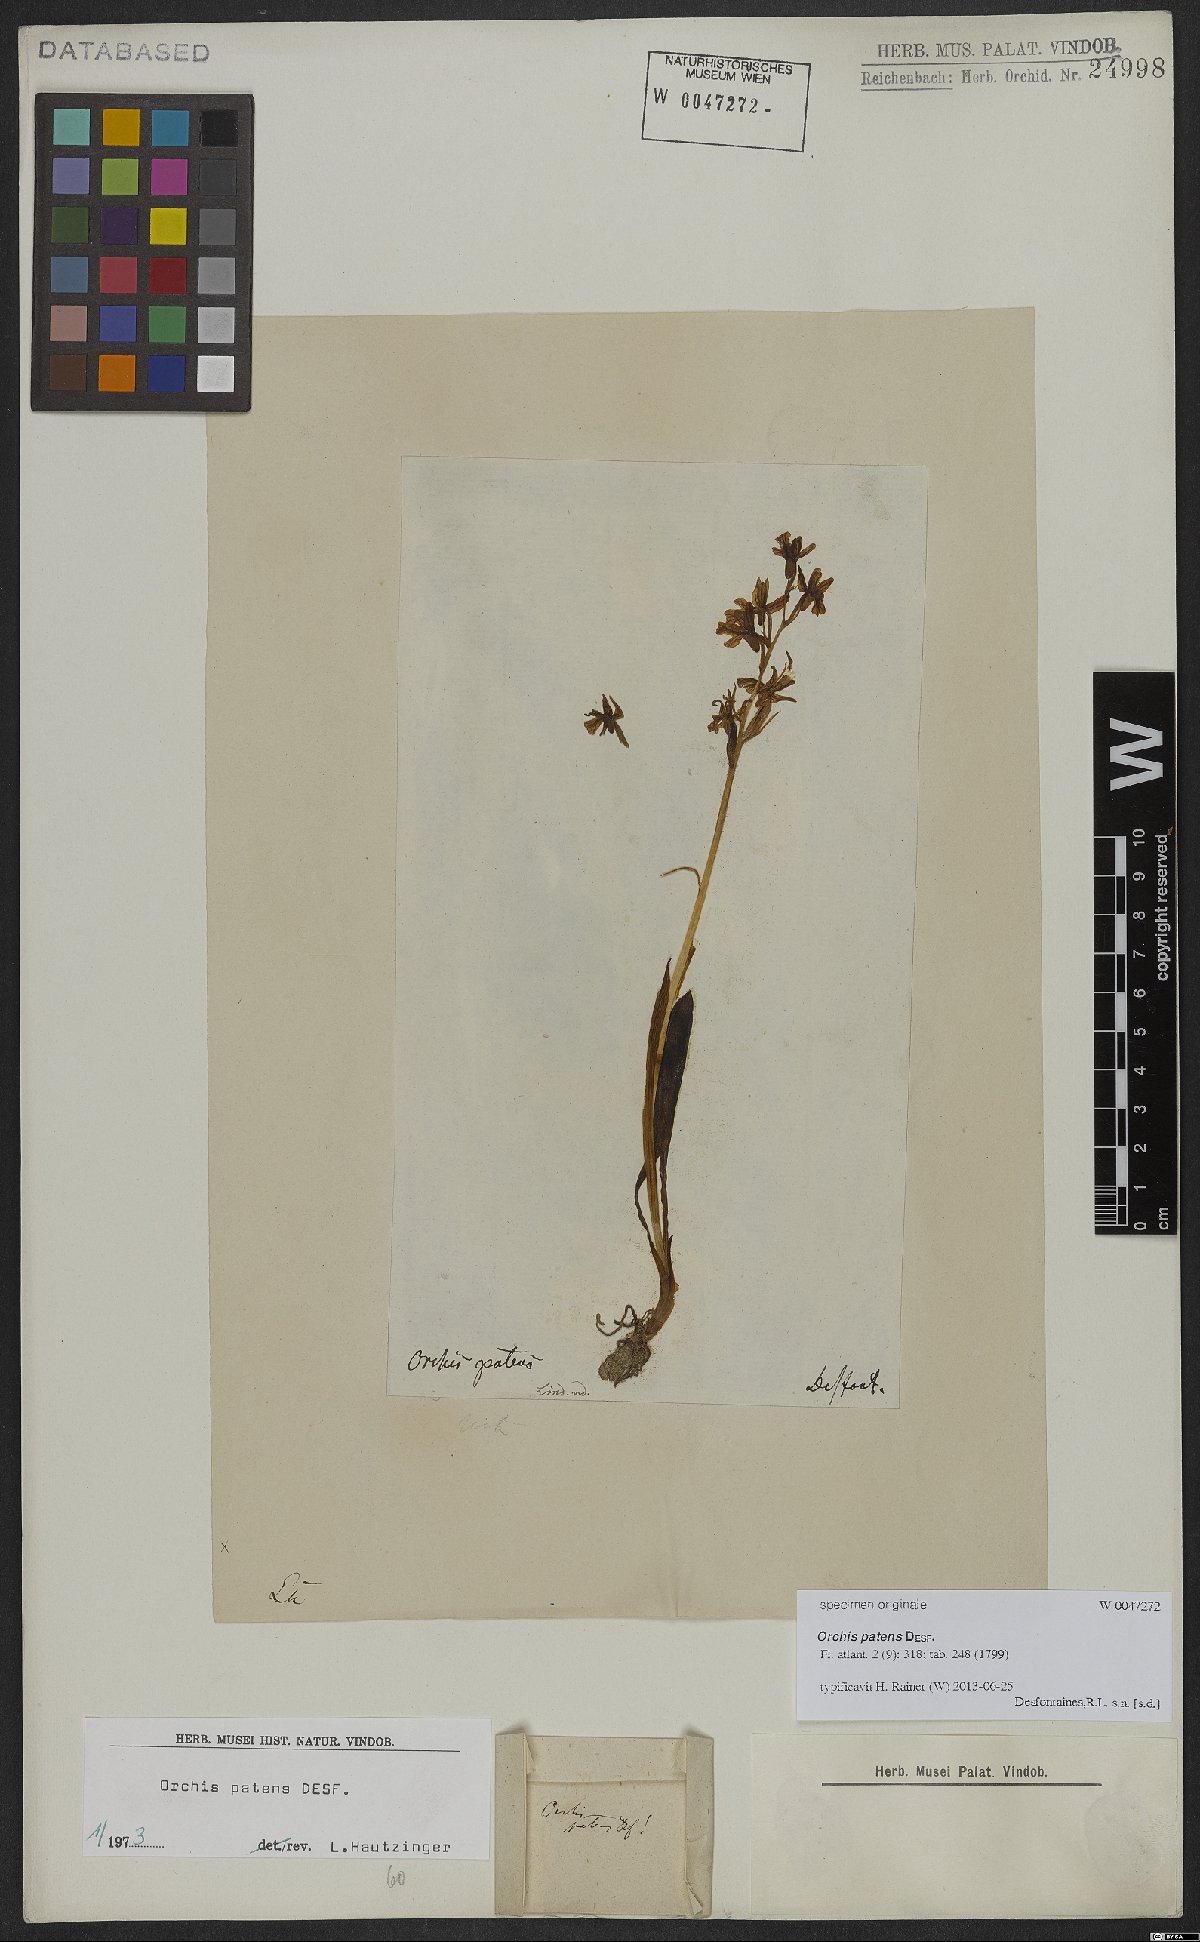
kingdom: Plantae
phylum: Tracheophyta
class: Liliopsida
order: Asparagales
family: Orchidaceae
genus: Orchis
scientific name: Orchis patens
